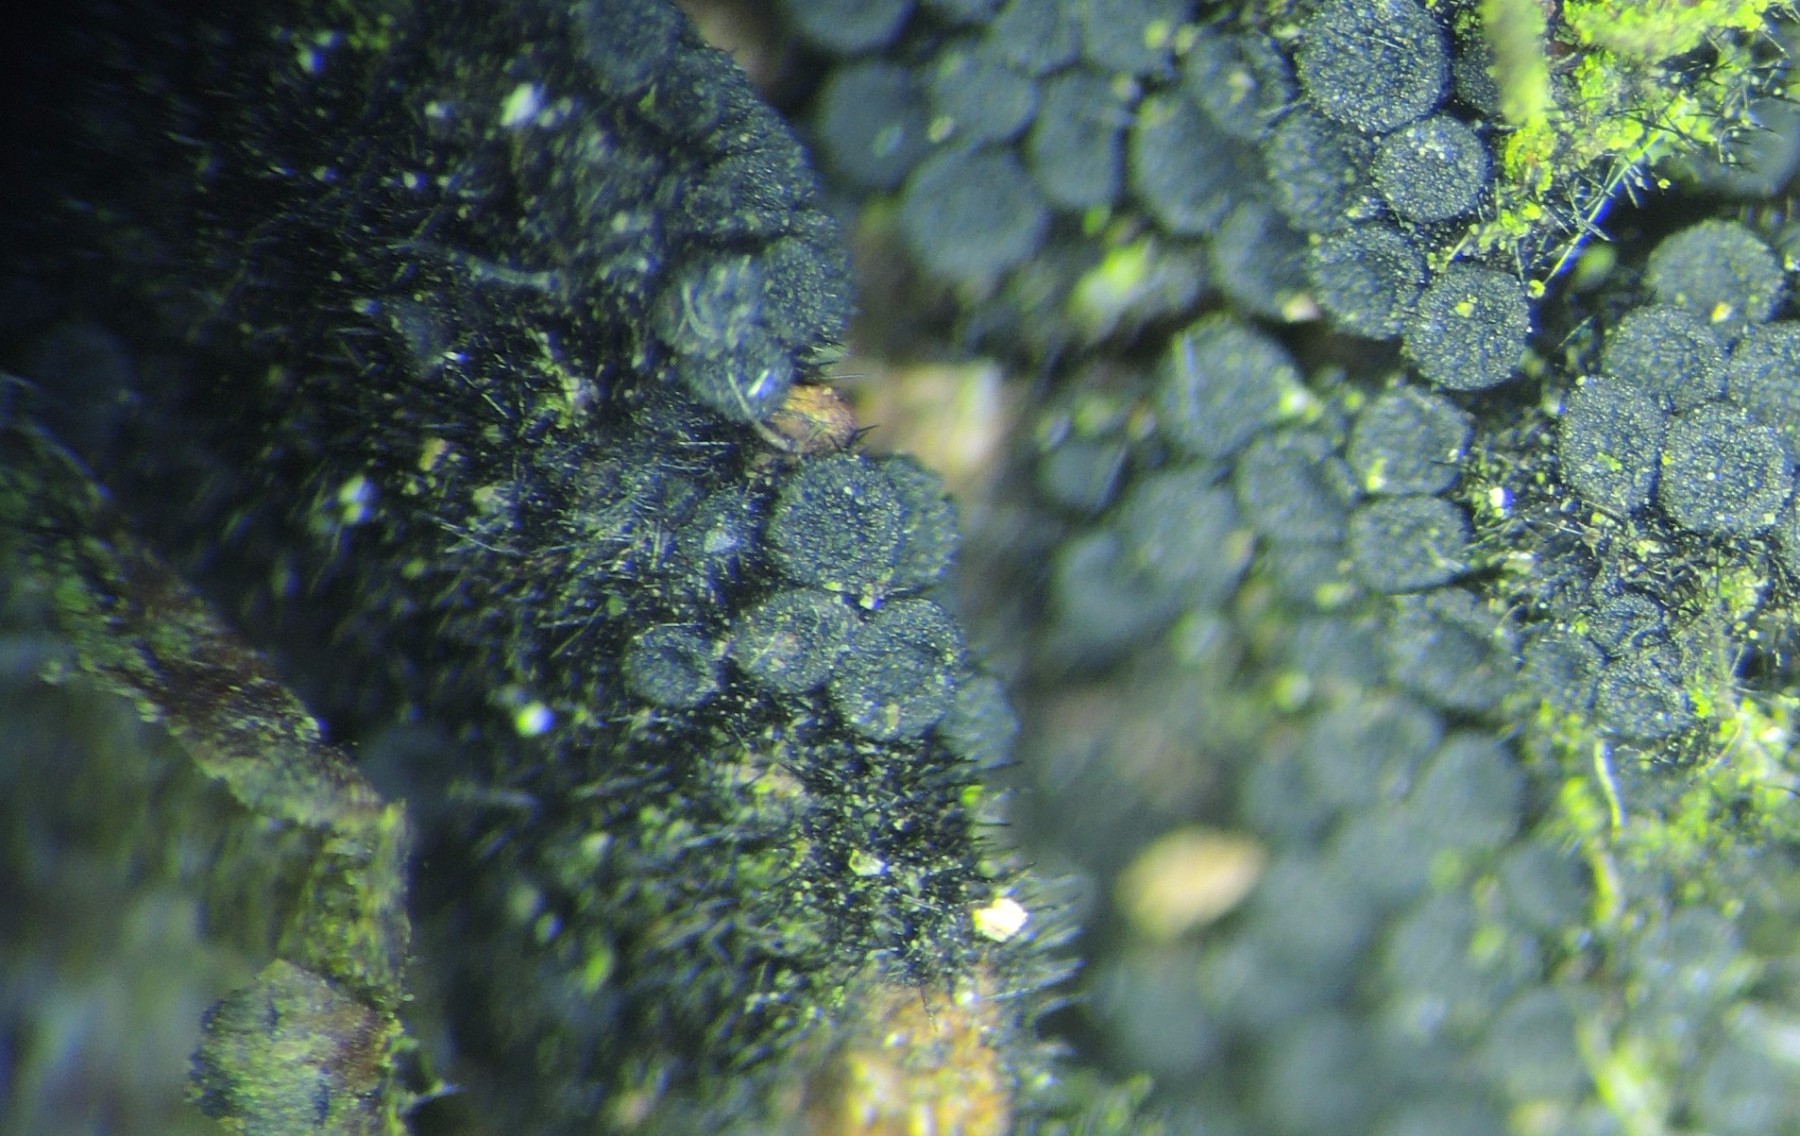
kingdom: Fungi
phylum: Ascomycota
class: Sordariomycetes
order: Coronophorales
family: Nitschkiaceae
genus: Acanthonitschkea
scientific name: Acanthonitschkea tristis
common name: børste-skålkerne
